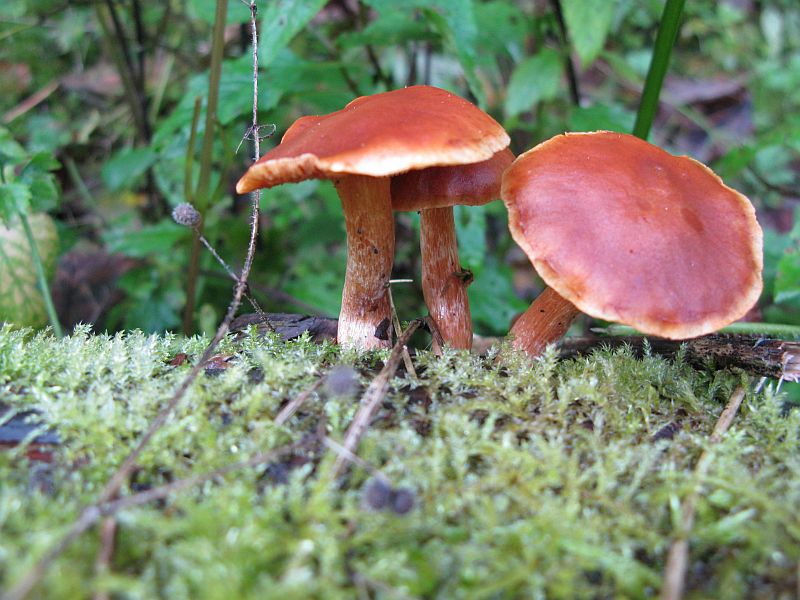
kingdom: Fungi
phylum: Basidiomycota
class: Agaricomycetes
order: Agaricales
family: Hymenogastraceae
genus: Gymnopilus
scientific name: Gymnopilus penetrans
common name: plettet flammehat
